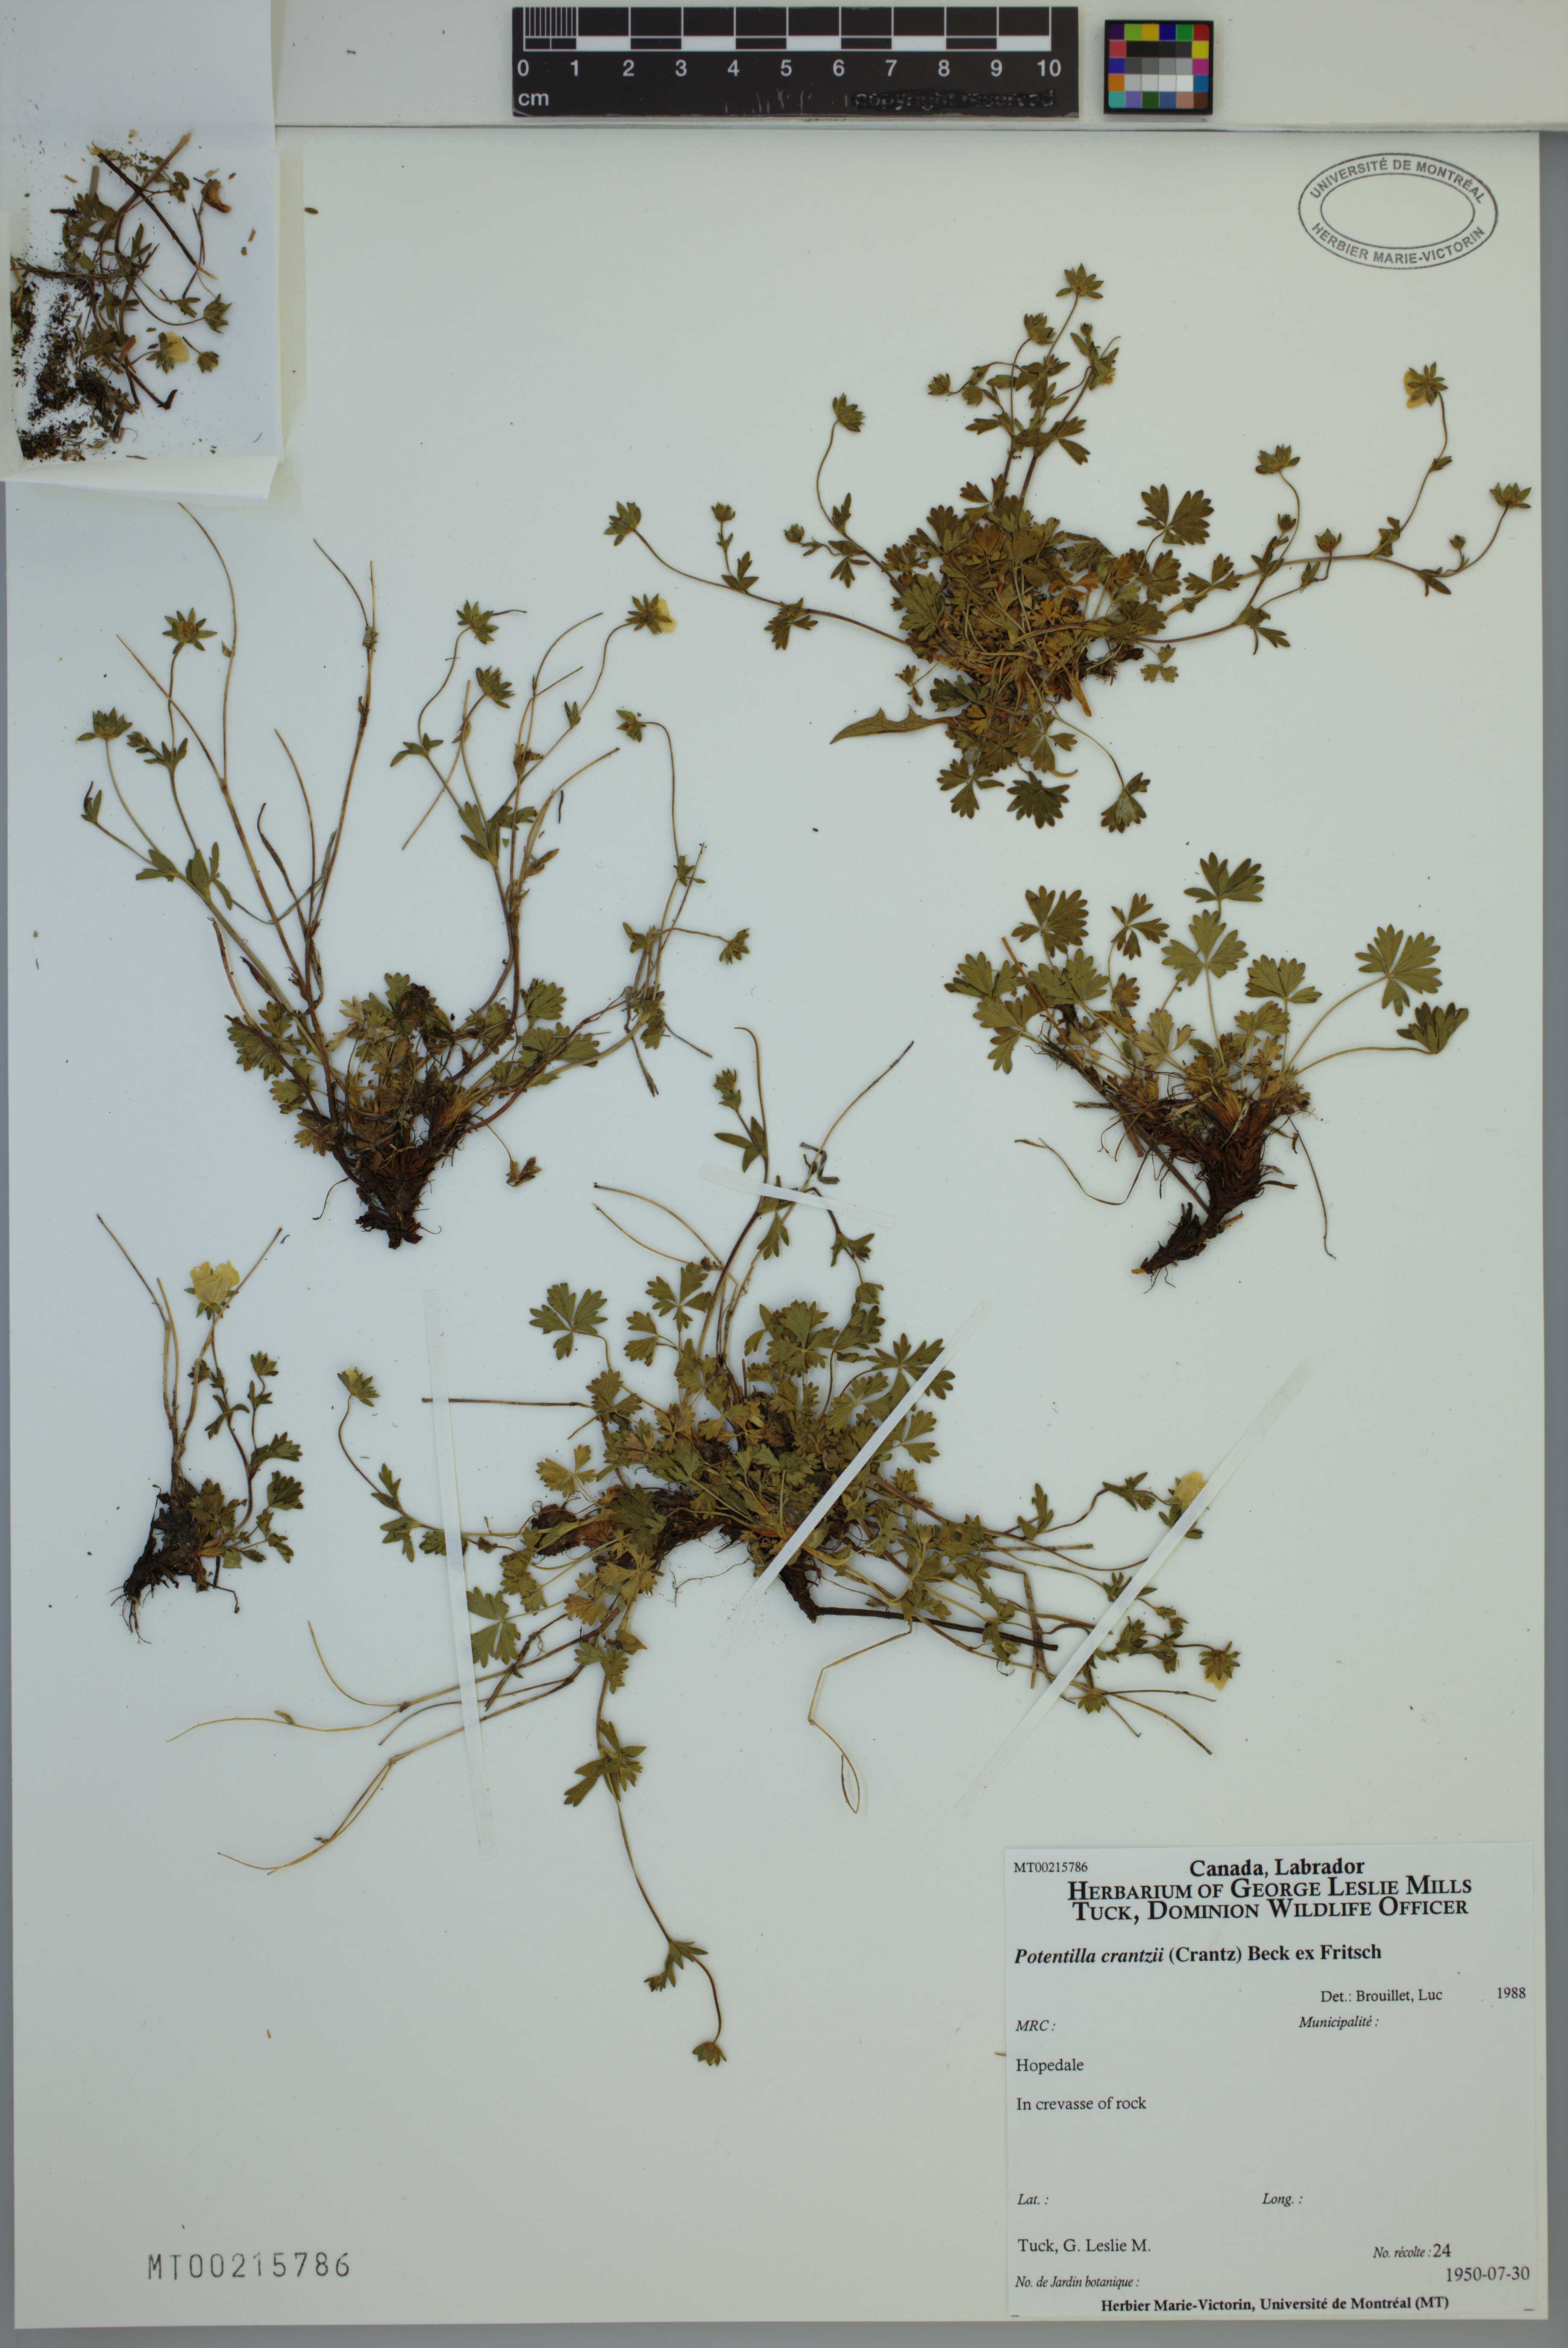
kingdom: Plantae
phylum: Tracheophyta
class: Magnoliopsida
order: Rosales
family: Rosaceae
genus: Potentilla
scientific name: Potentilla crantzii
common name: Alpine cinquefoil
